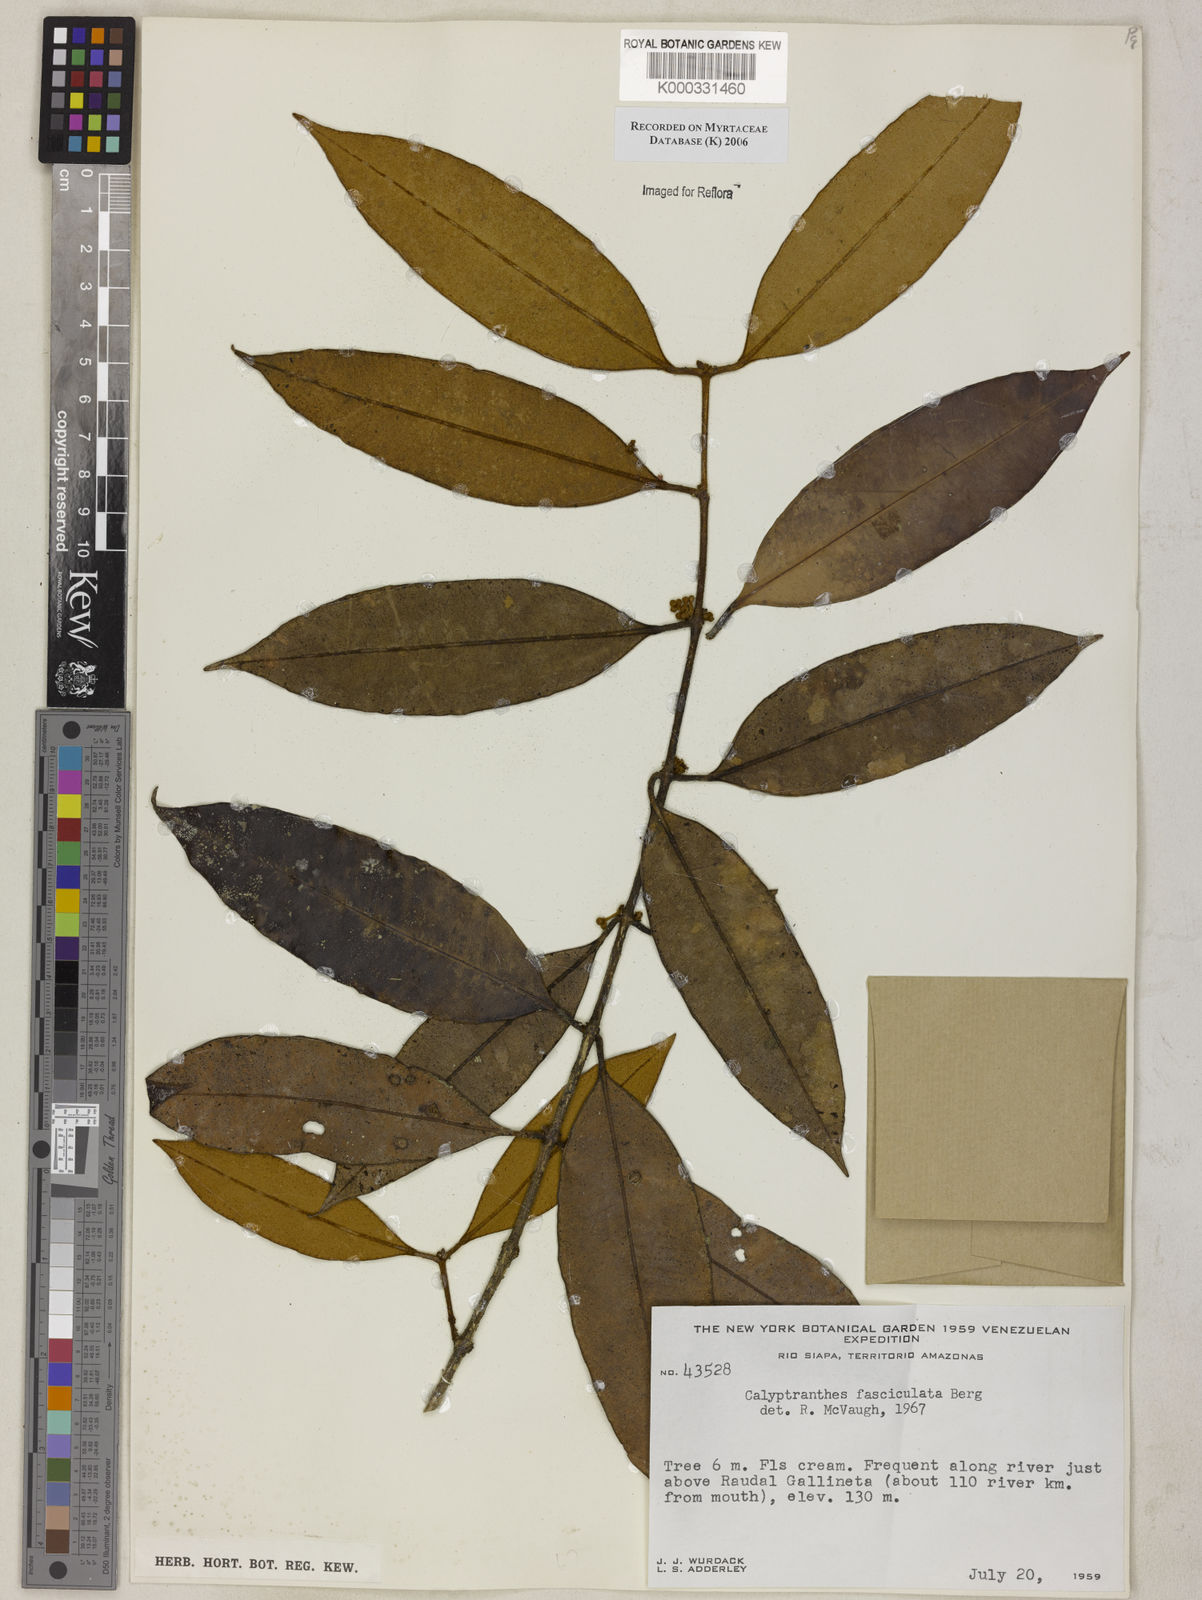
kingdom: Plantae
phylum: Tracheophyta
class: Magnoliopsida
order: Myrtales
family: Myrtaceae
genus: Myrcia
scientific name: Myrcia fasciculata
